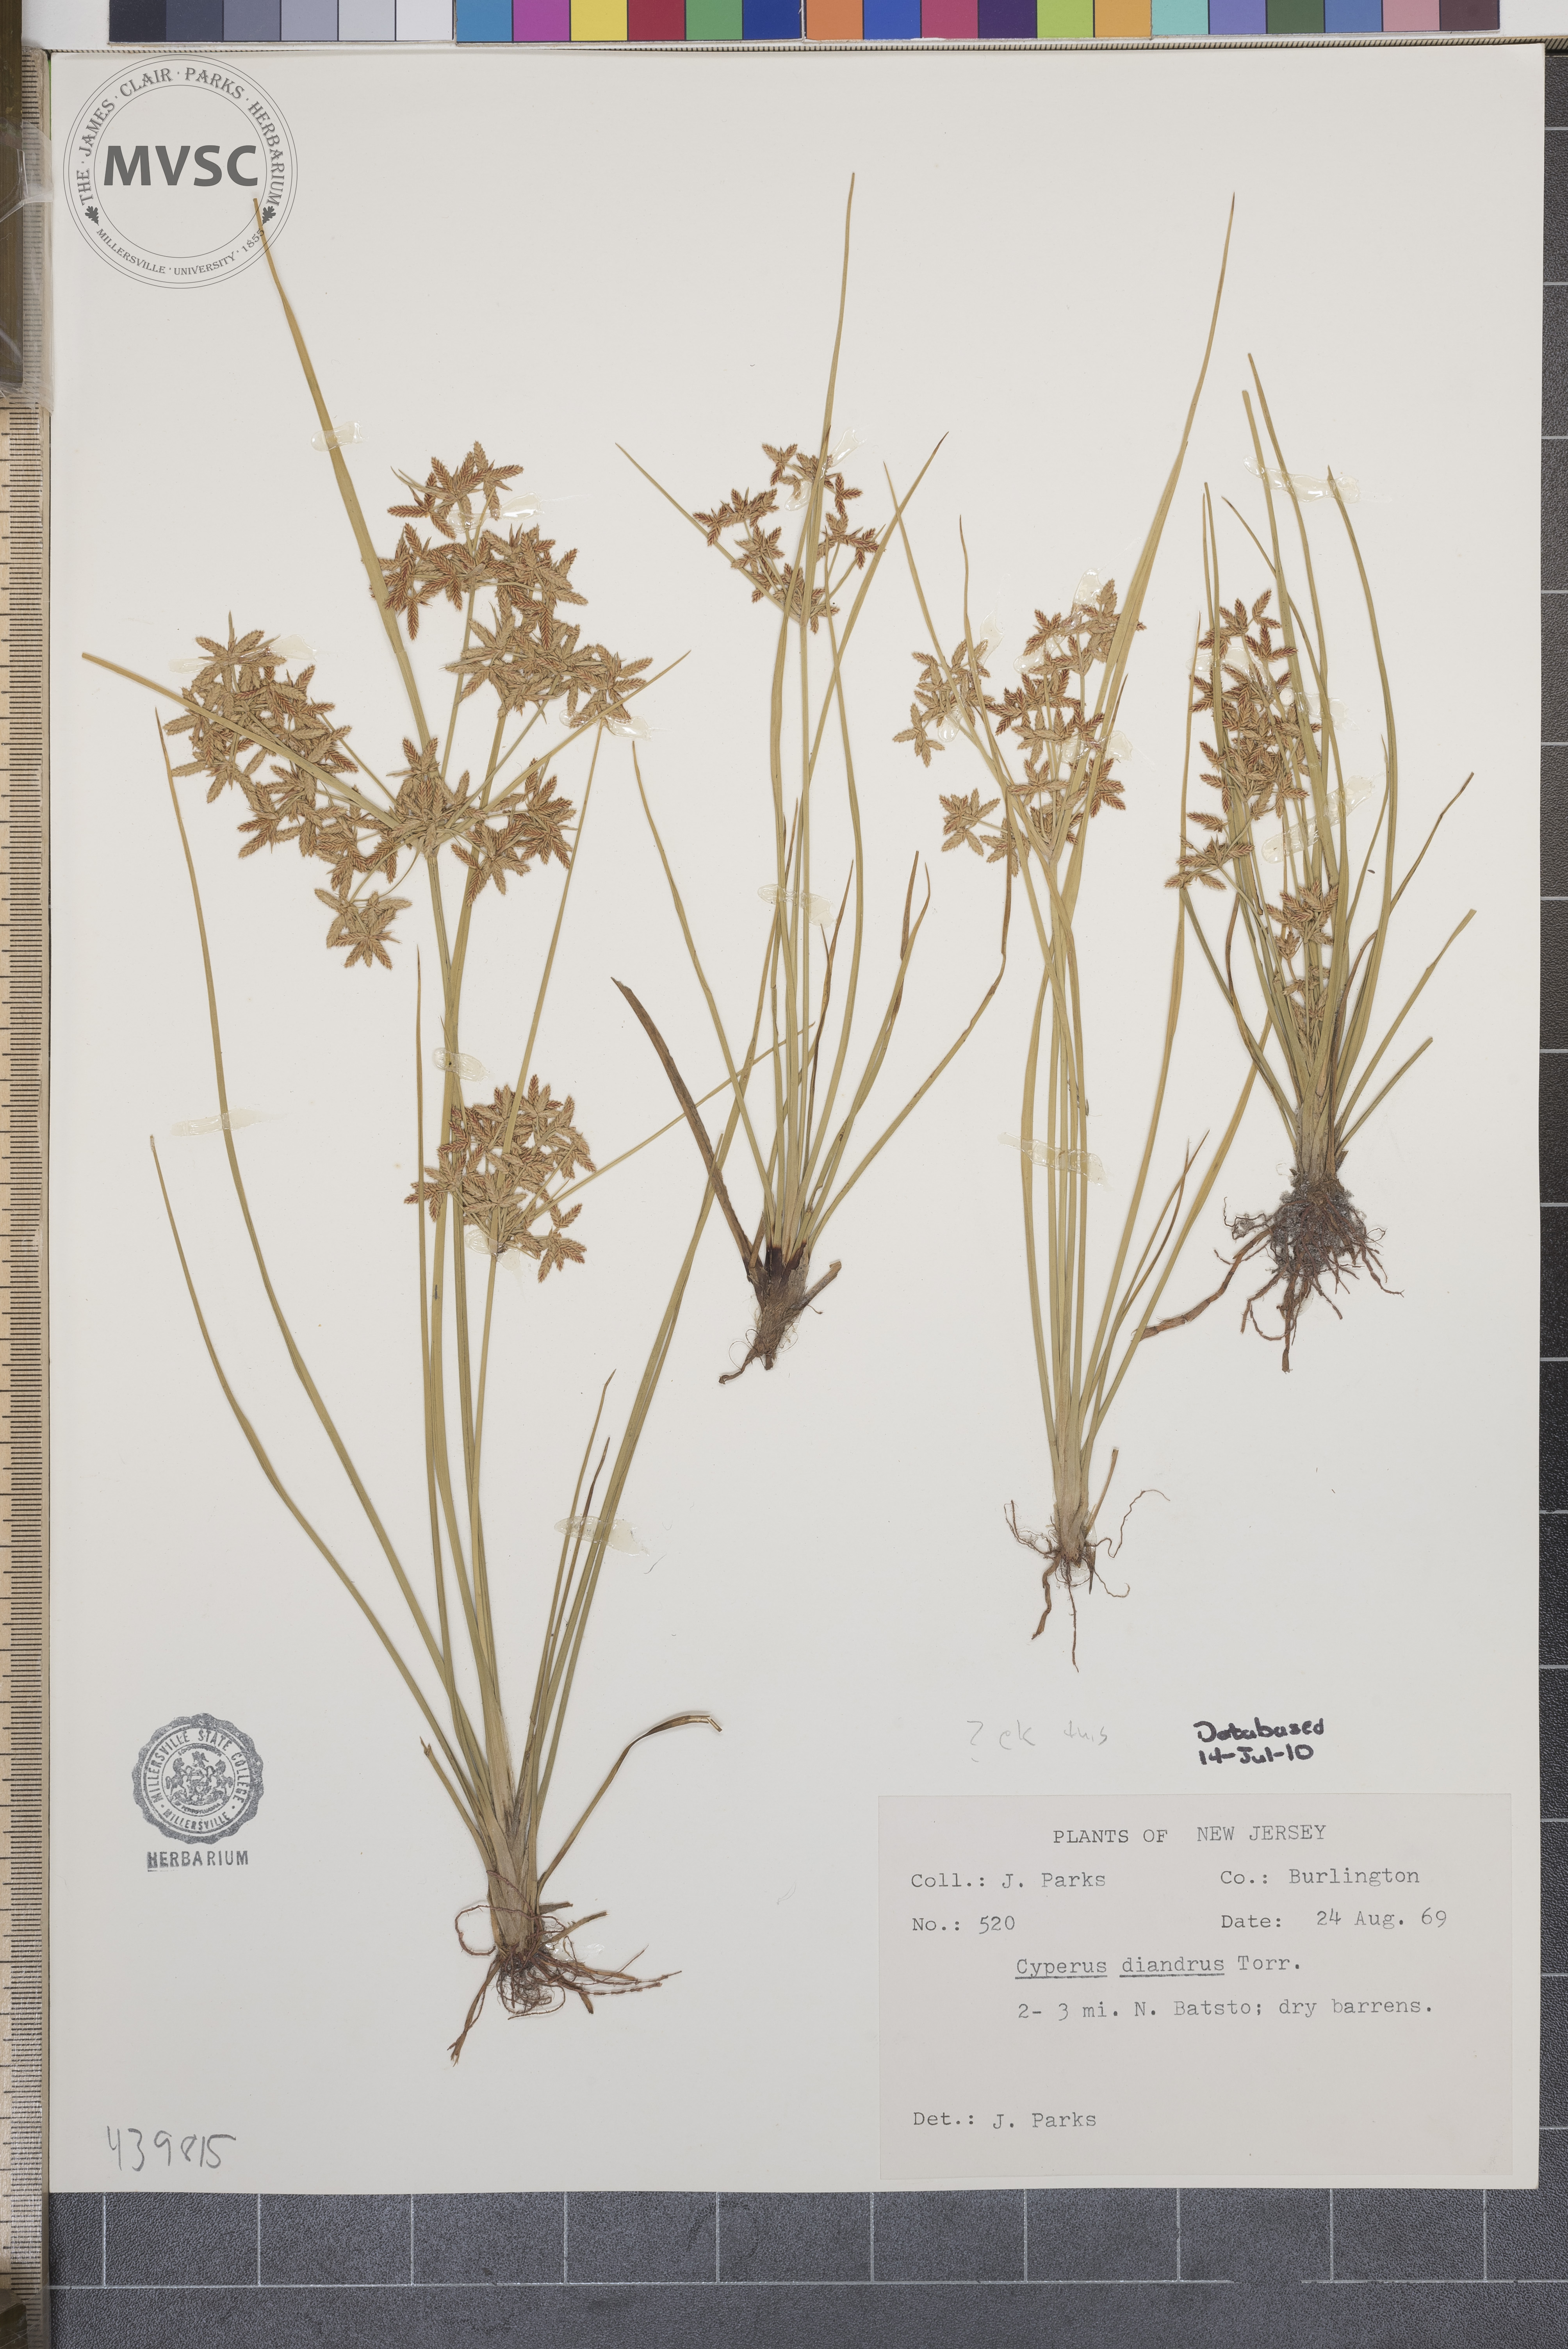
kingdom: Plantae
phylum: Tracheophyta
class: Liliopsida
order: Poales
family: Cyperaceae
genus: Cyperus
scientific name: Cyperus diandrus
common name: Low cyperus
